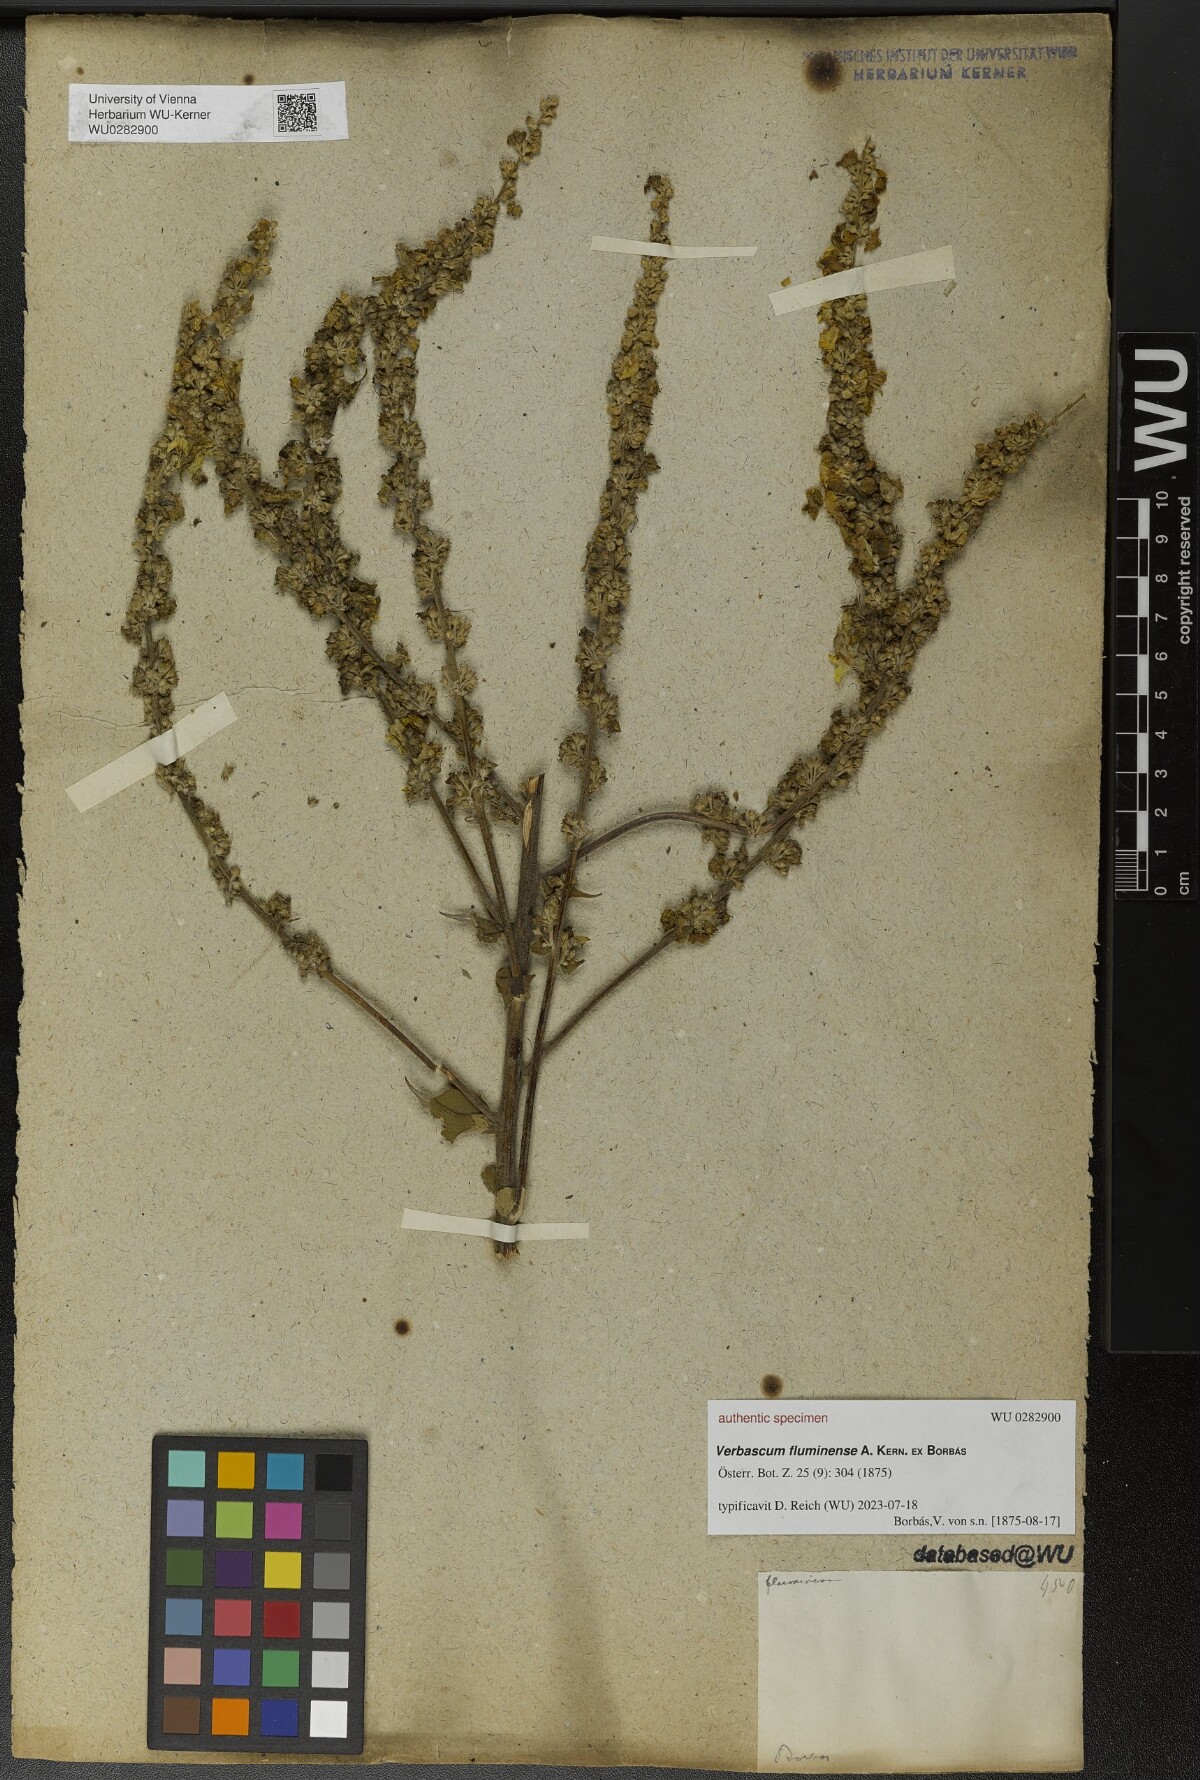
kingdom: Plantae
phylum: Tracheophyta
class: Magnoliopsida
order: Lamiales
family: Scrophulariaceae
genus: Verbascum
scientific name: Verbascum fluminense
